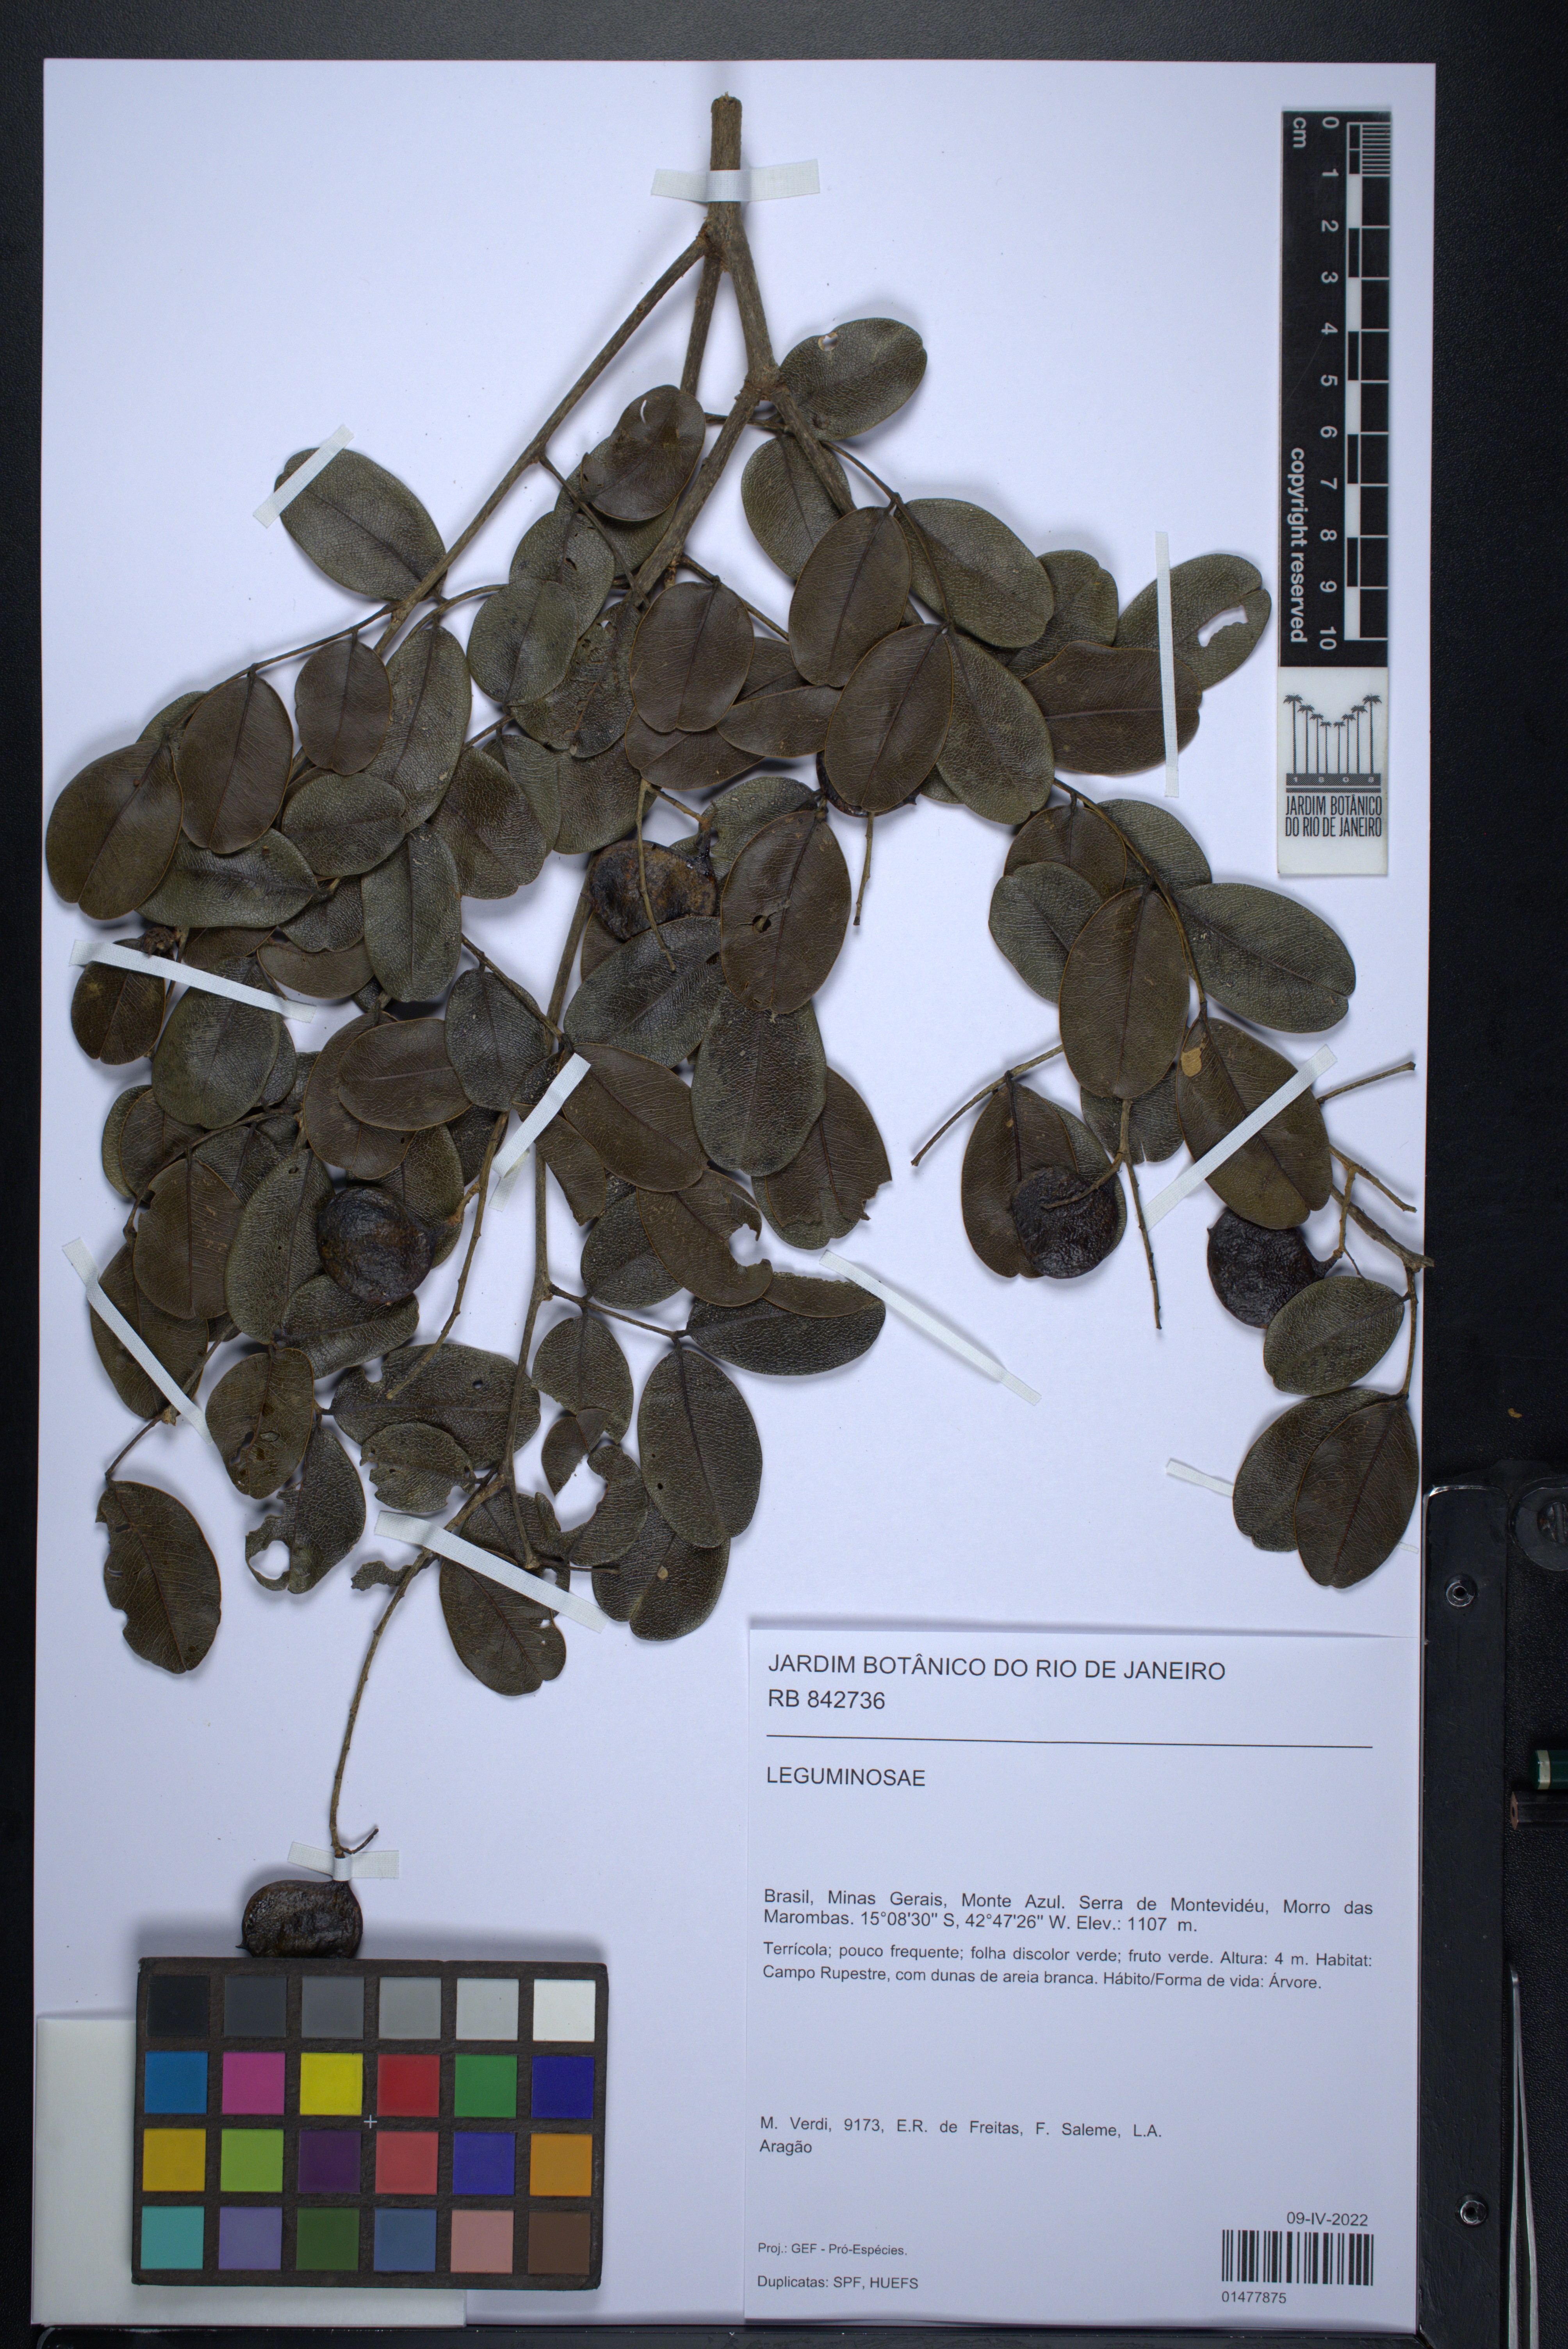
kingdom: Plantae
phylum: Tracheophyta
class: Magnoliopsida
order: Fabales
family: Fabaceae
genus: Copaifera
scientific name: Copaifera
